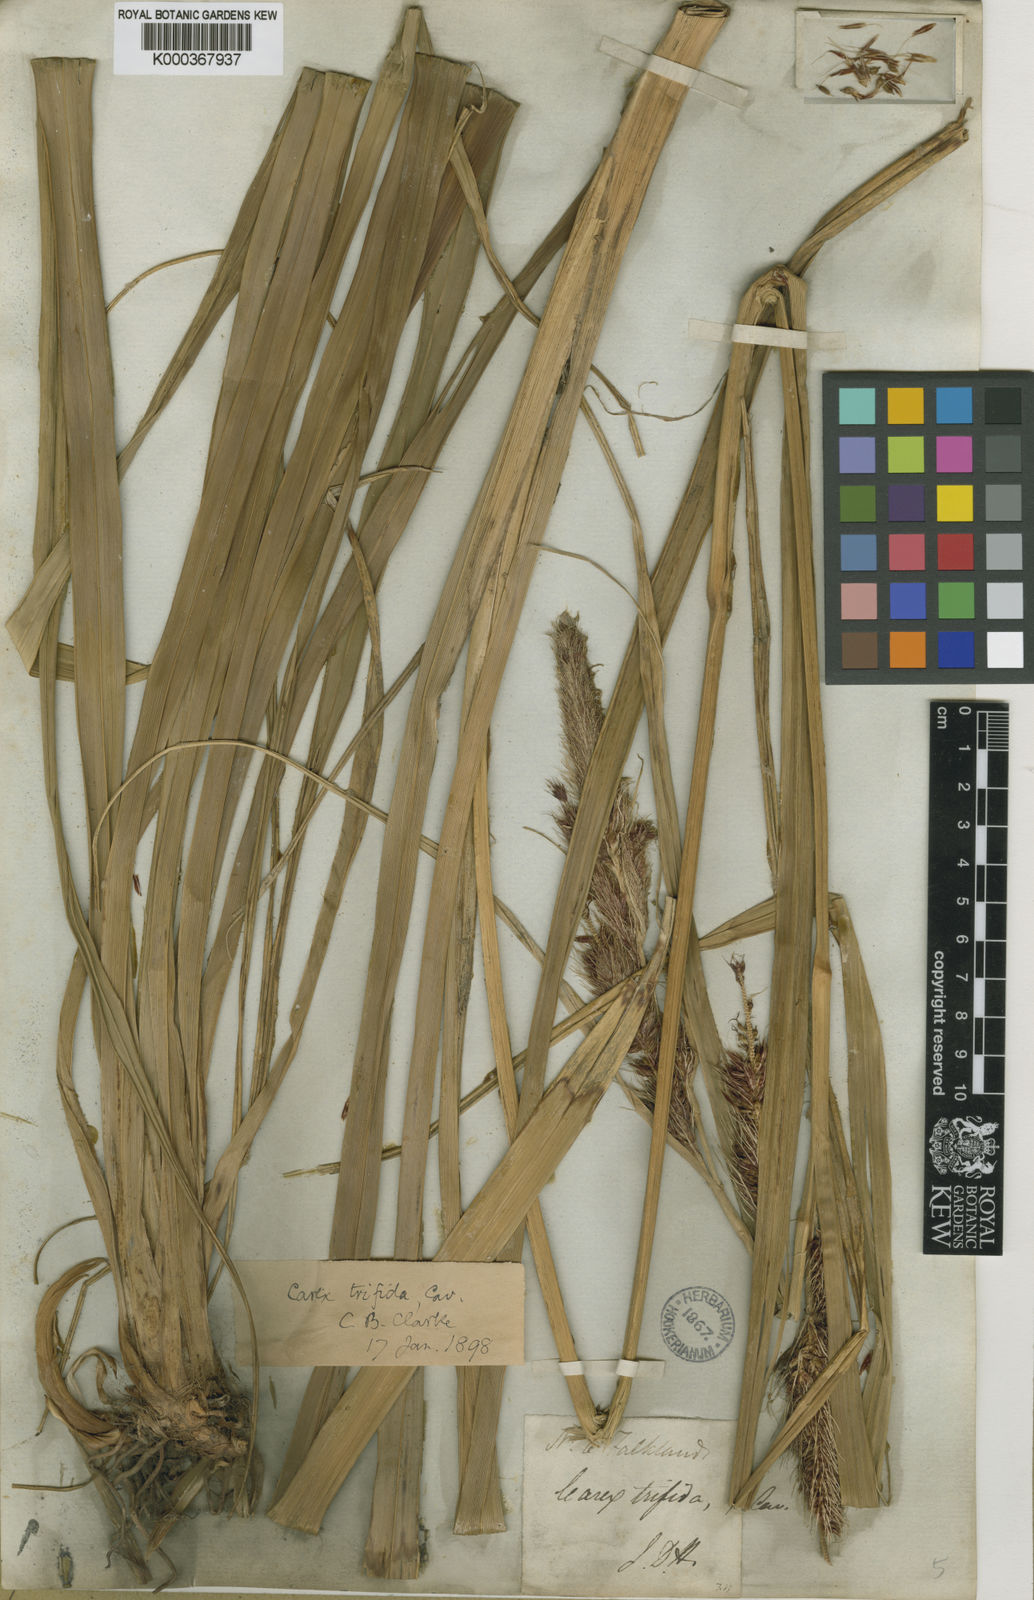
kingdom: Plantae
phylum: Tracheophyta
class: Liliopsida
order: Poales
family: Cyperaceae
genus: Carex
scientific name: Carex trifida
